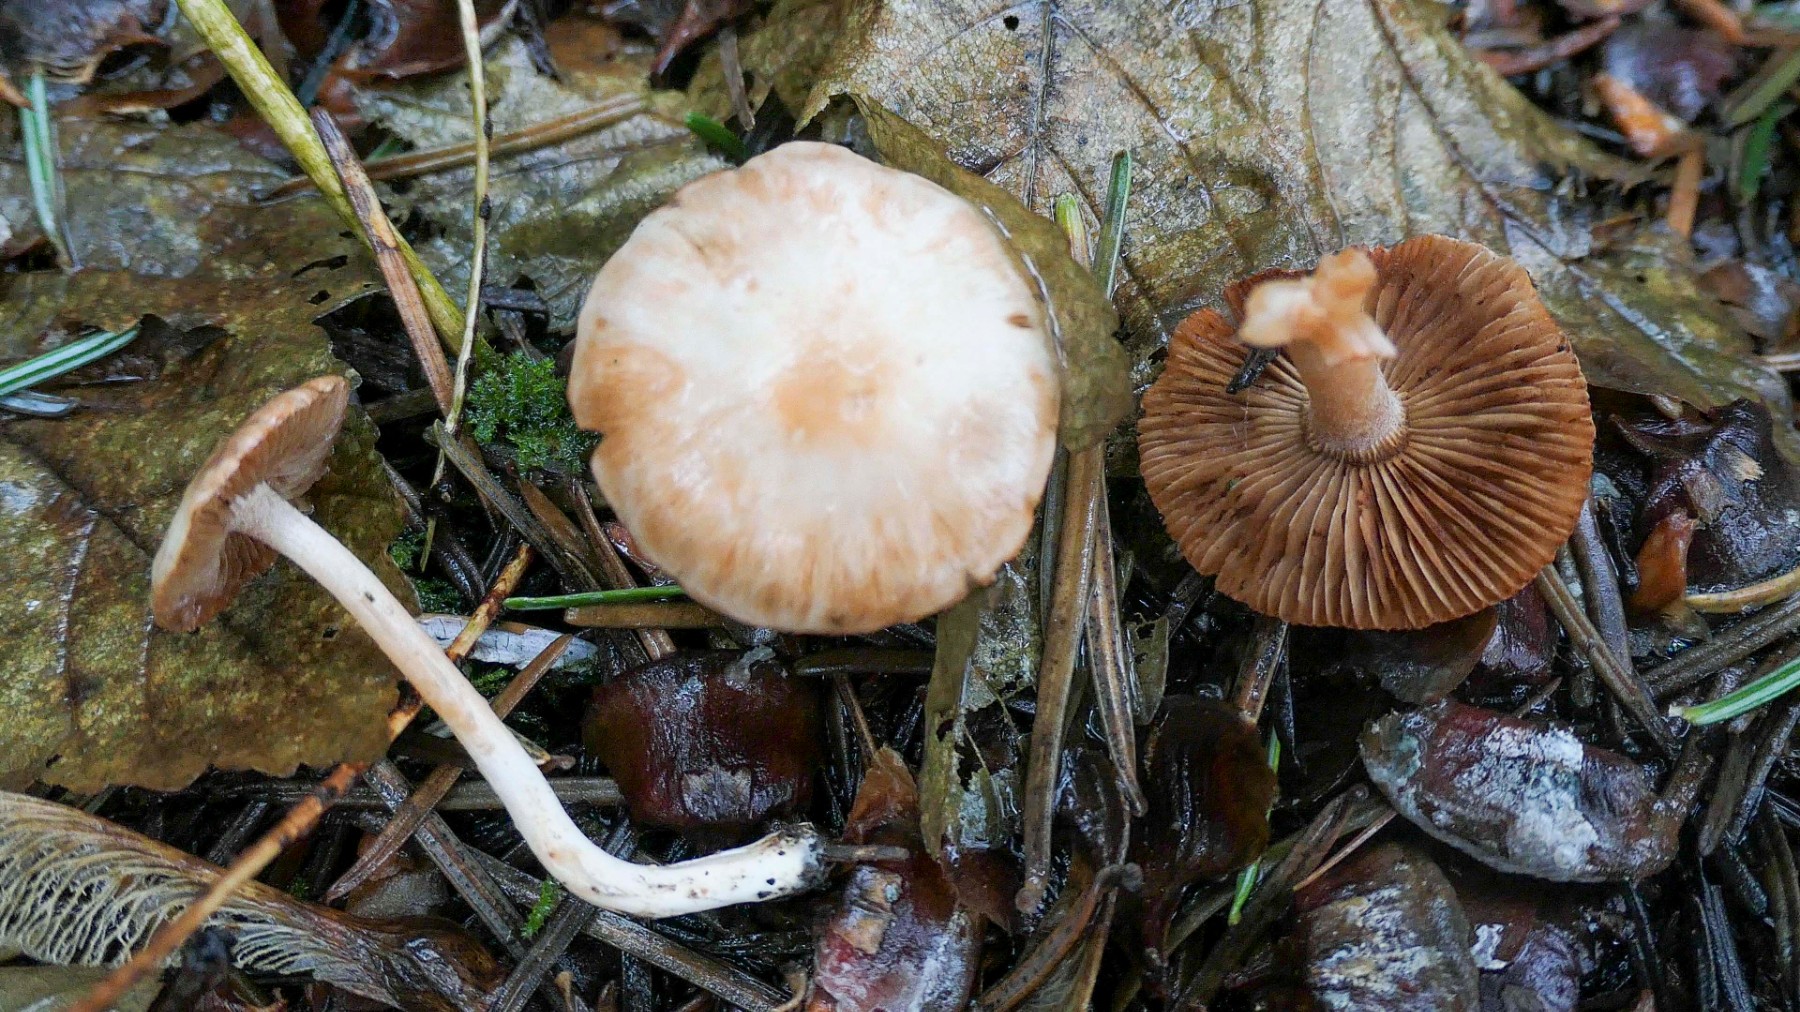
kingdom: Fungi
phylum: Basidiomycota
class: Agaricomycetes
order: Agaricales
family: Inocybaceae
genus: Inocybe
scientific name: Inocybe
